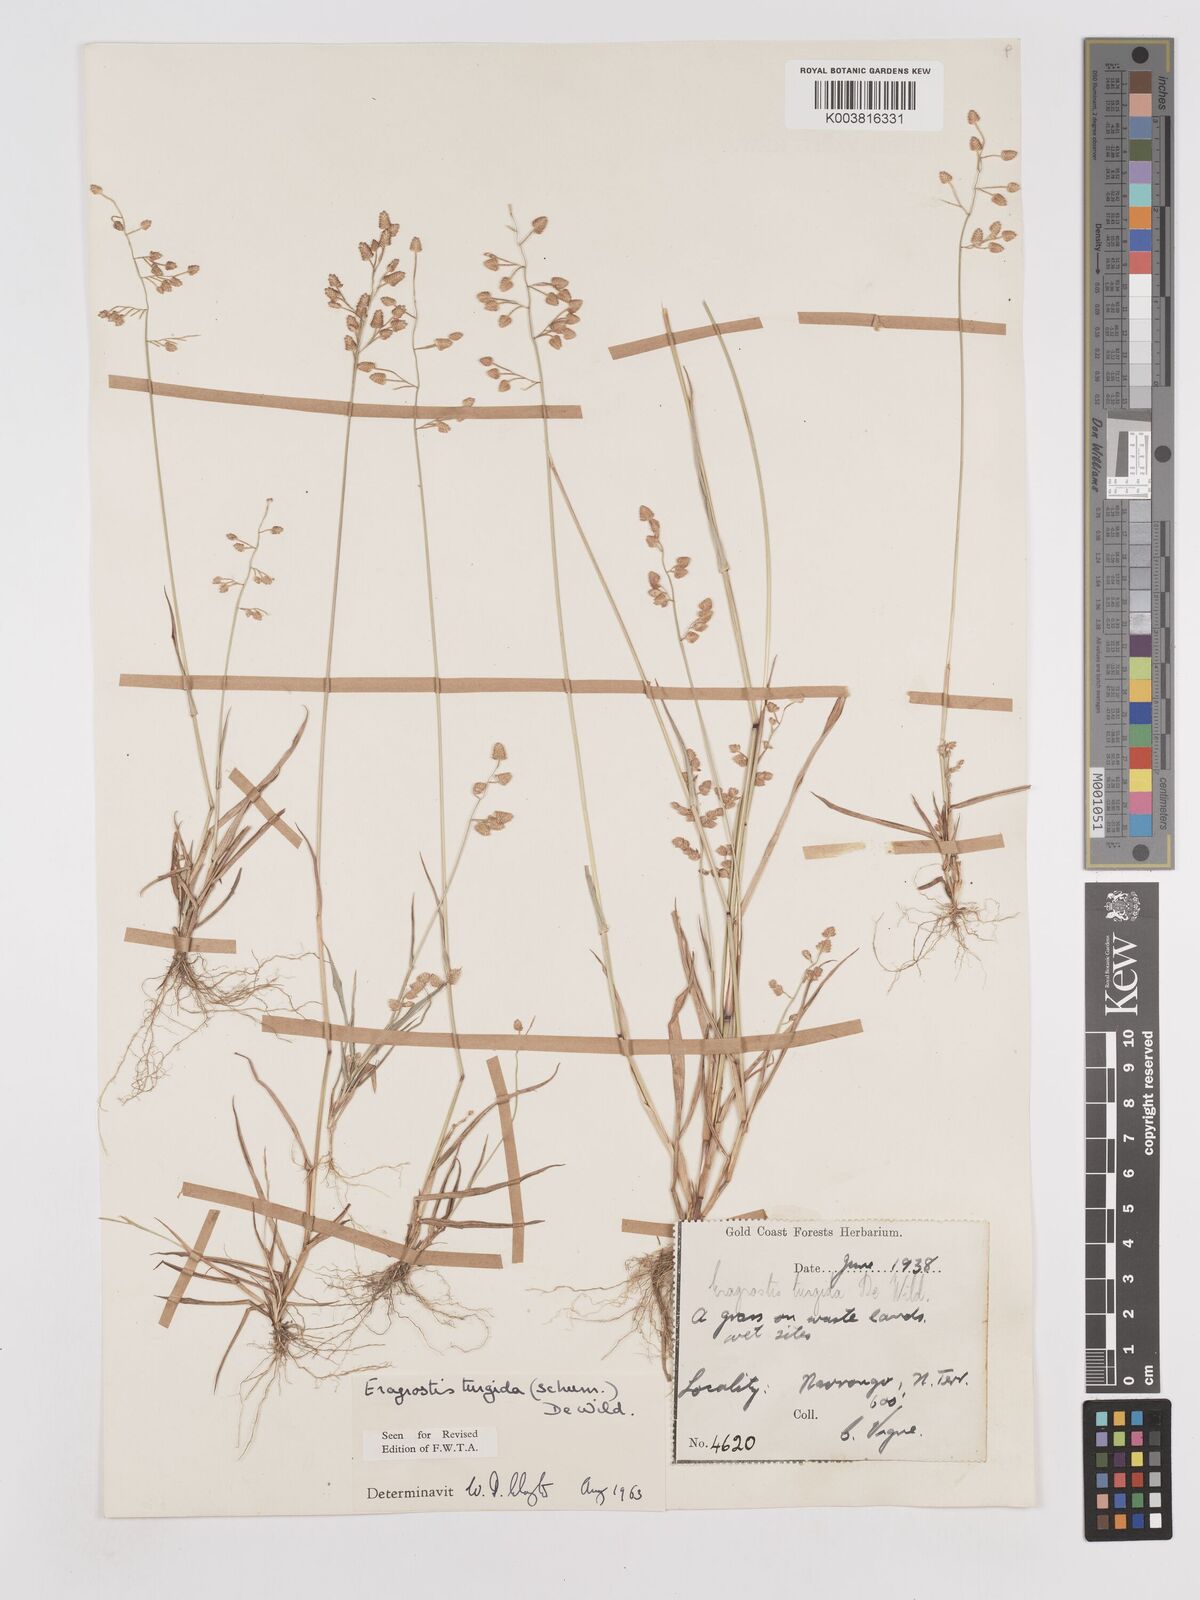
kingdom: Plantae
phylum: Tracheophyta
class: Liliopsida
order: Poales
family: Poaceae
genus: Eragrostis
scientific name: Eragrostis turgida
